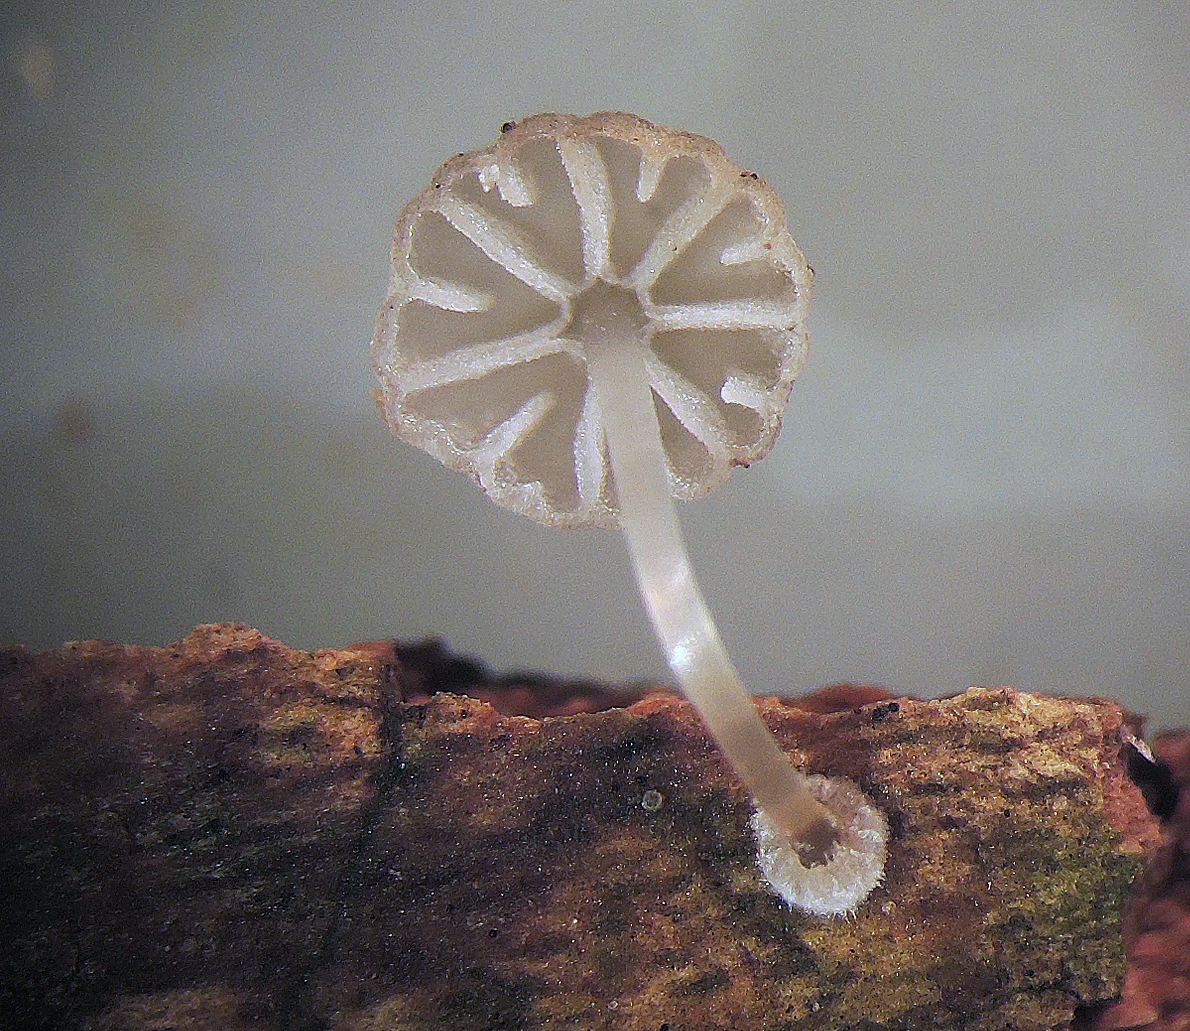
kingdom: Fungi
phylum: Basidiomycota
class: Agaricomycetes
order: Agaricales
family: Mycenaceae
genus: Mycena
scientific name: Mycena clavularis
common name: dunskivet huesvamp
